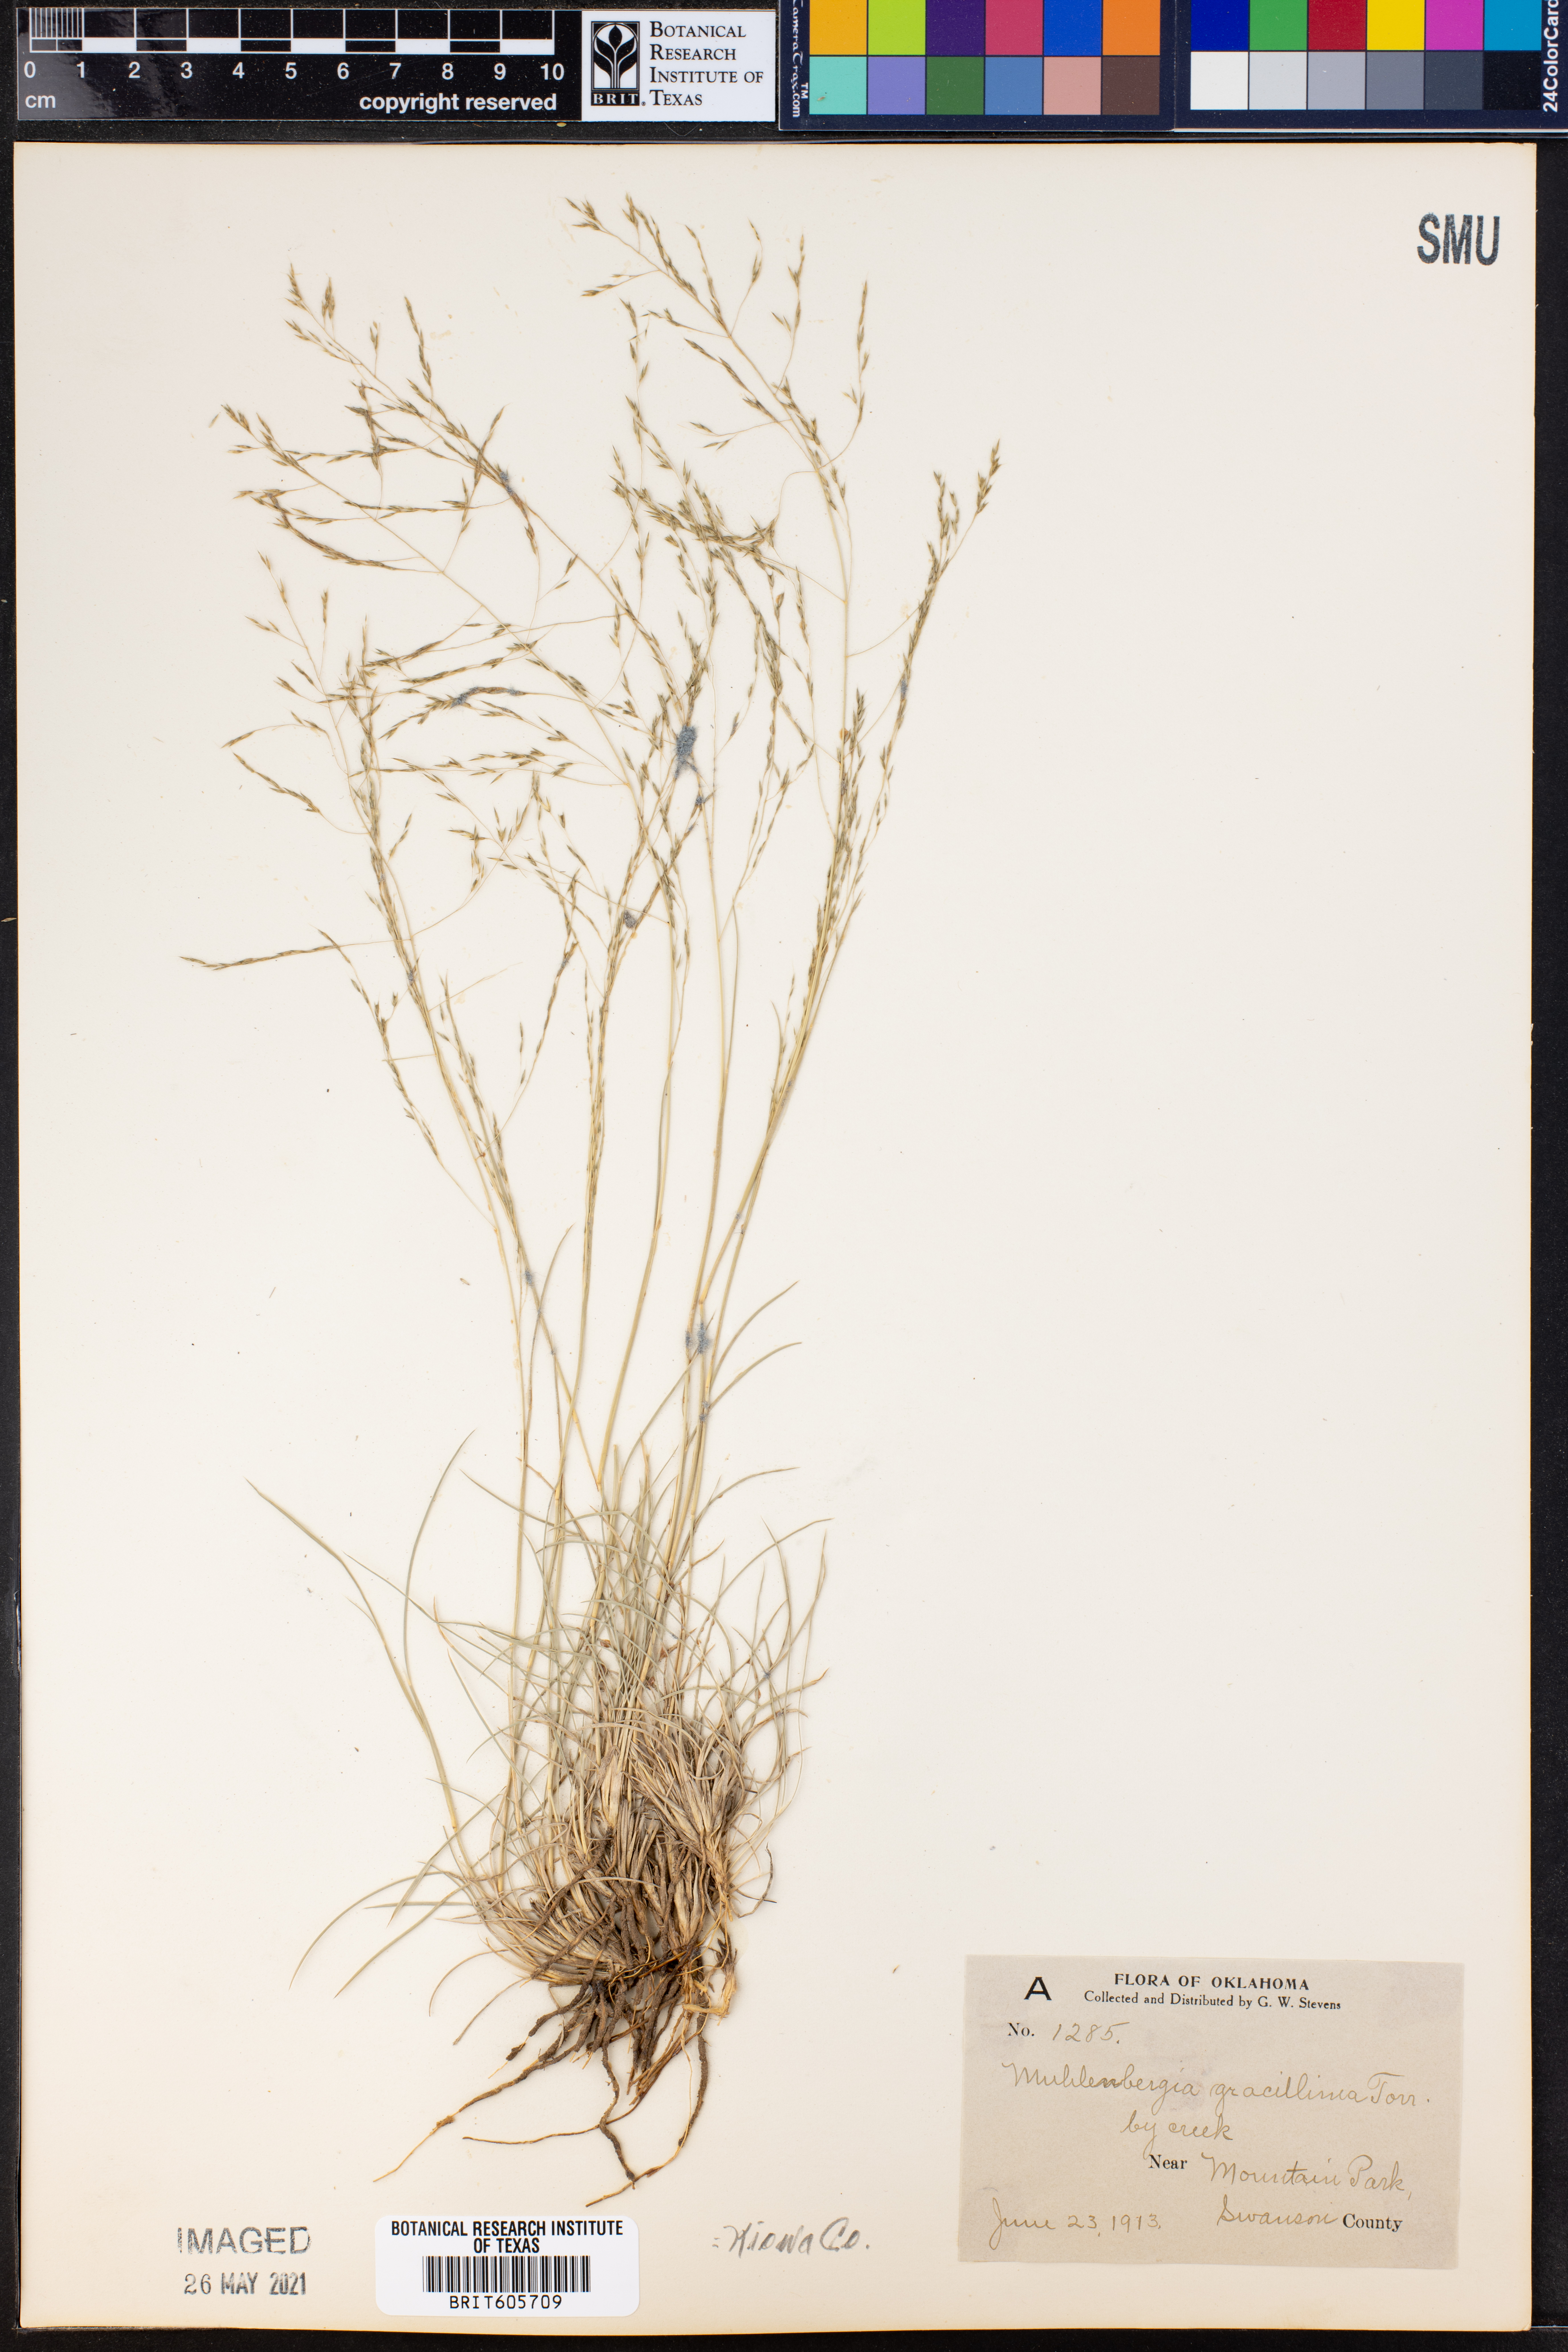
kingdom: Plantae
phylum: Tracheophyta
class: Liliopsida
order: Poales
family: Poaceae
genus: Muhlenbergia
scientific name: Muhlenbergia torreyi
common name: Ring grass
